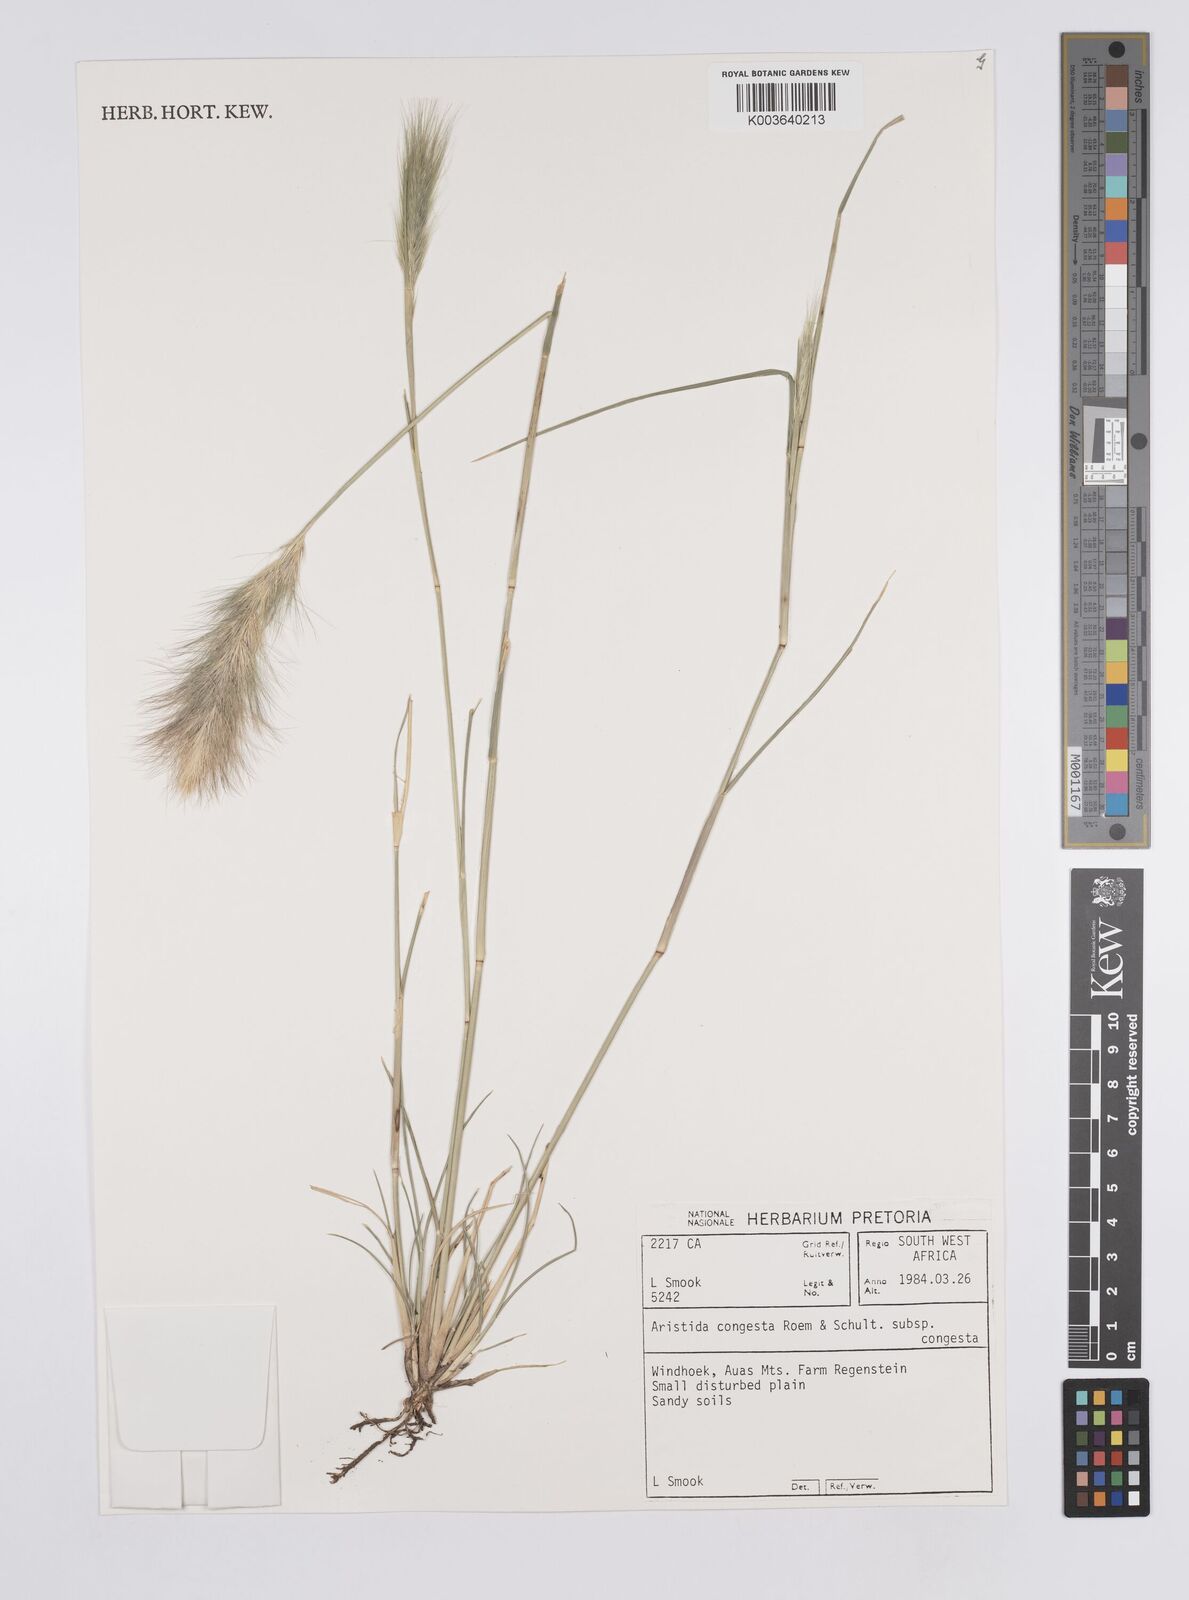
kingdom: Plantae
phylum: Tracheophyta
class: Liliopsida
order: Poales
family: Poaceae
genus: Aristida
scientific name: Aristida congesta
